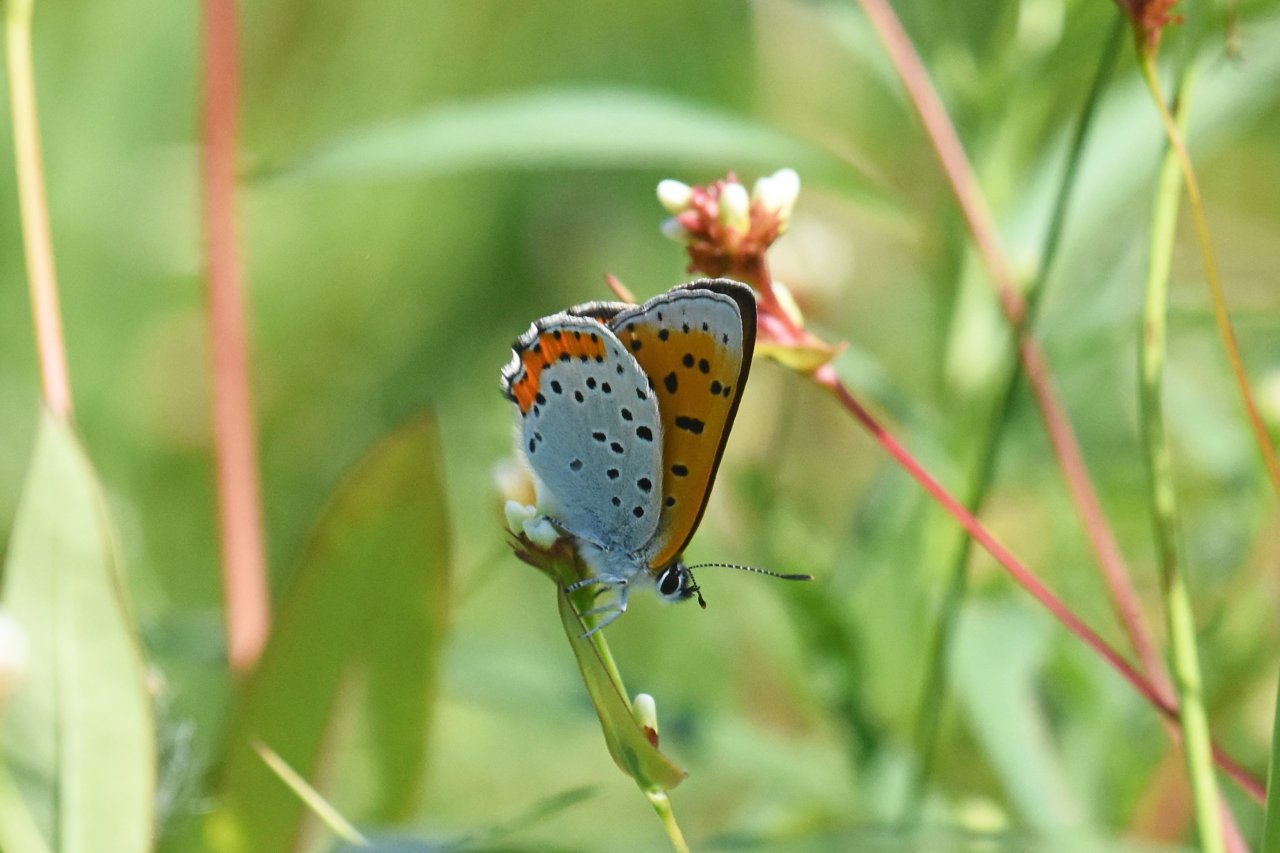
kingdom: Animalia
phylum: Arthropoda
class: Insecta
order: Lepidoptera
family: Sesiidae
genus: Sesia
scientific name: Sesia Lycaena hyllus
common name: Bronze Copper
